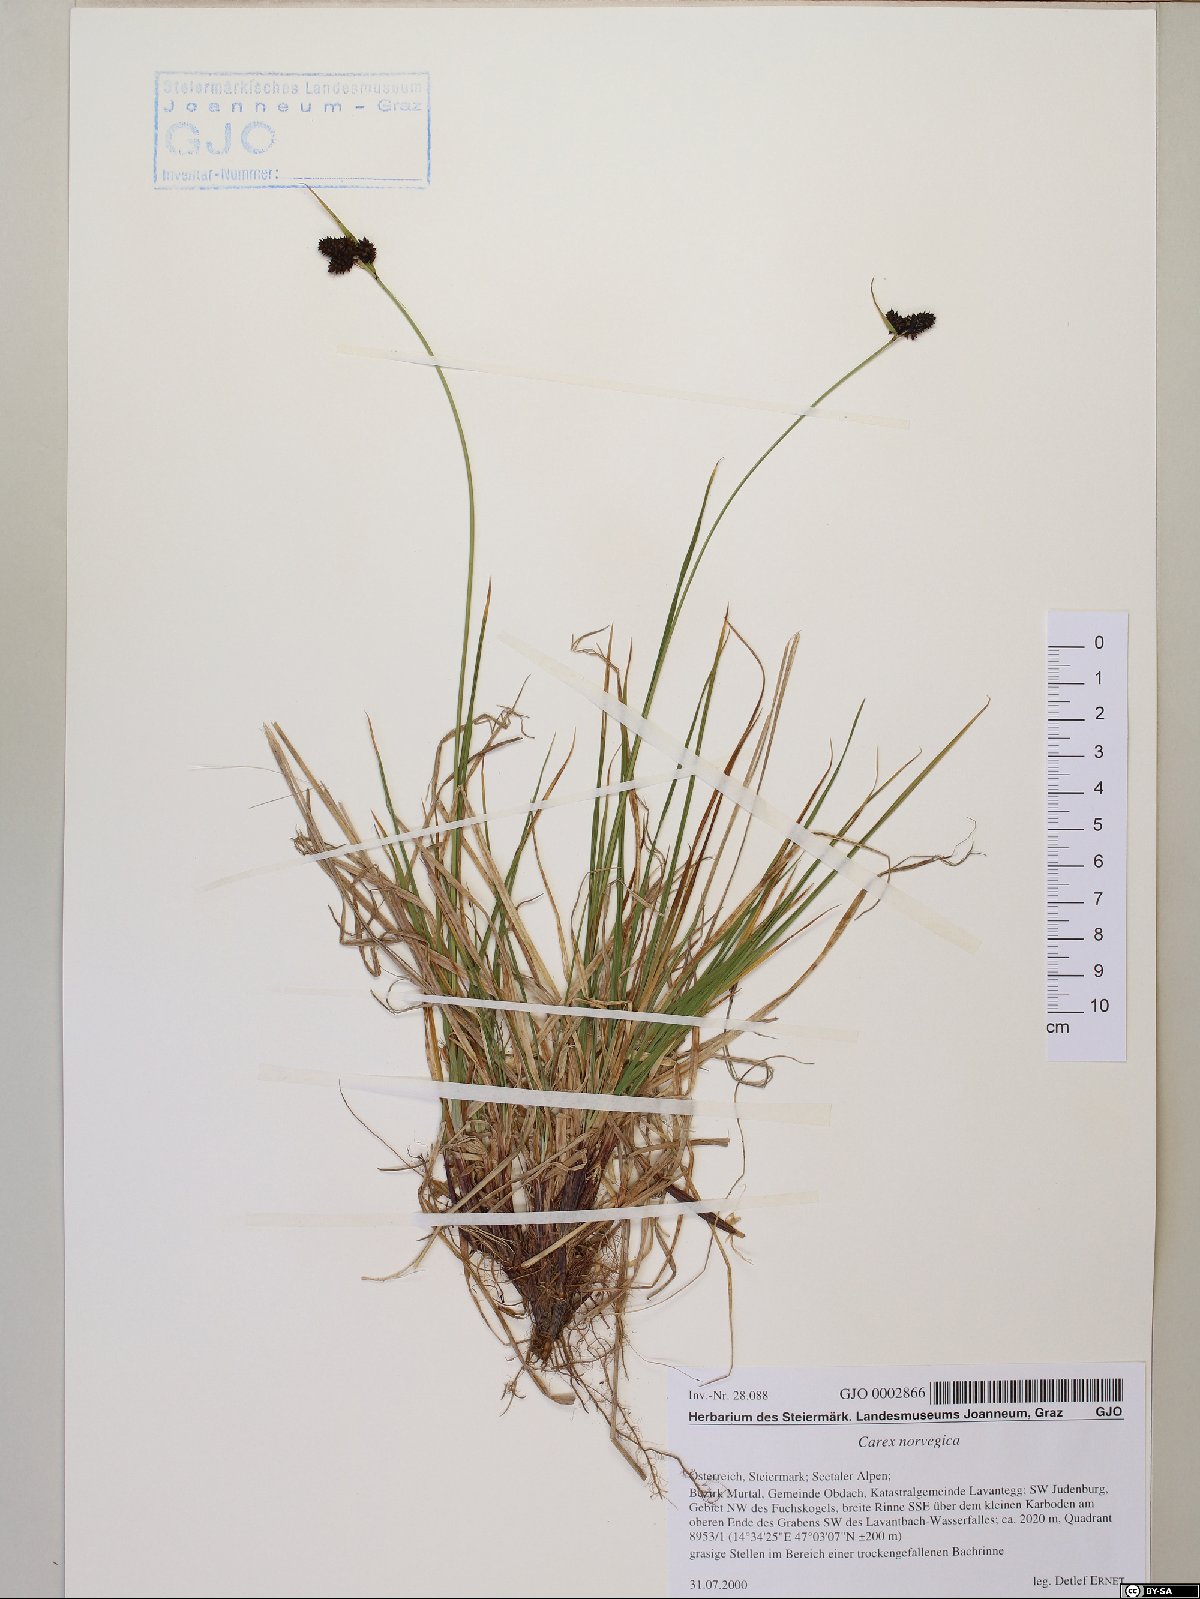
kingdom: Plantae
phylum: Tracheophyta
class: Liliopsida
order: Poales
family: Cyperaceae
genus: Carex
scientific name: Carex norvegica
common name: Close-headed alpine-sedge
